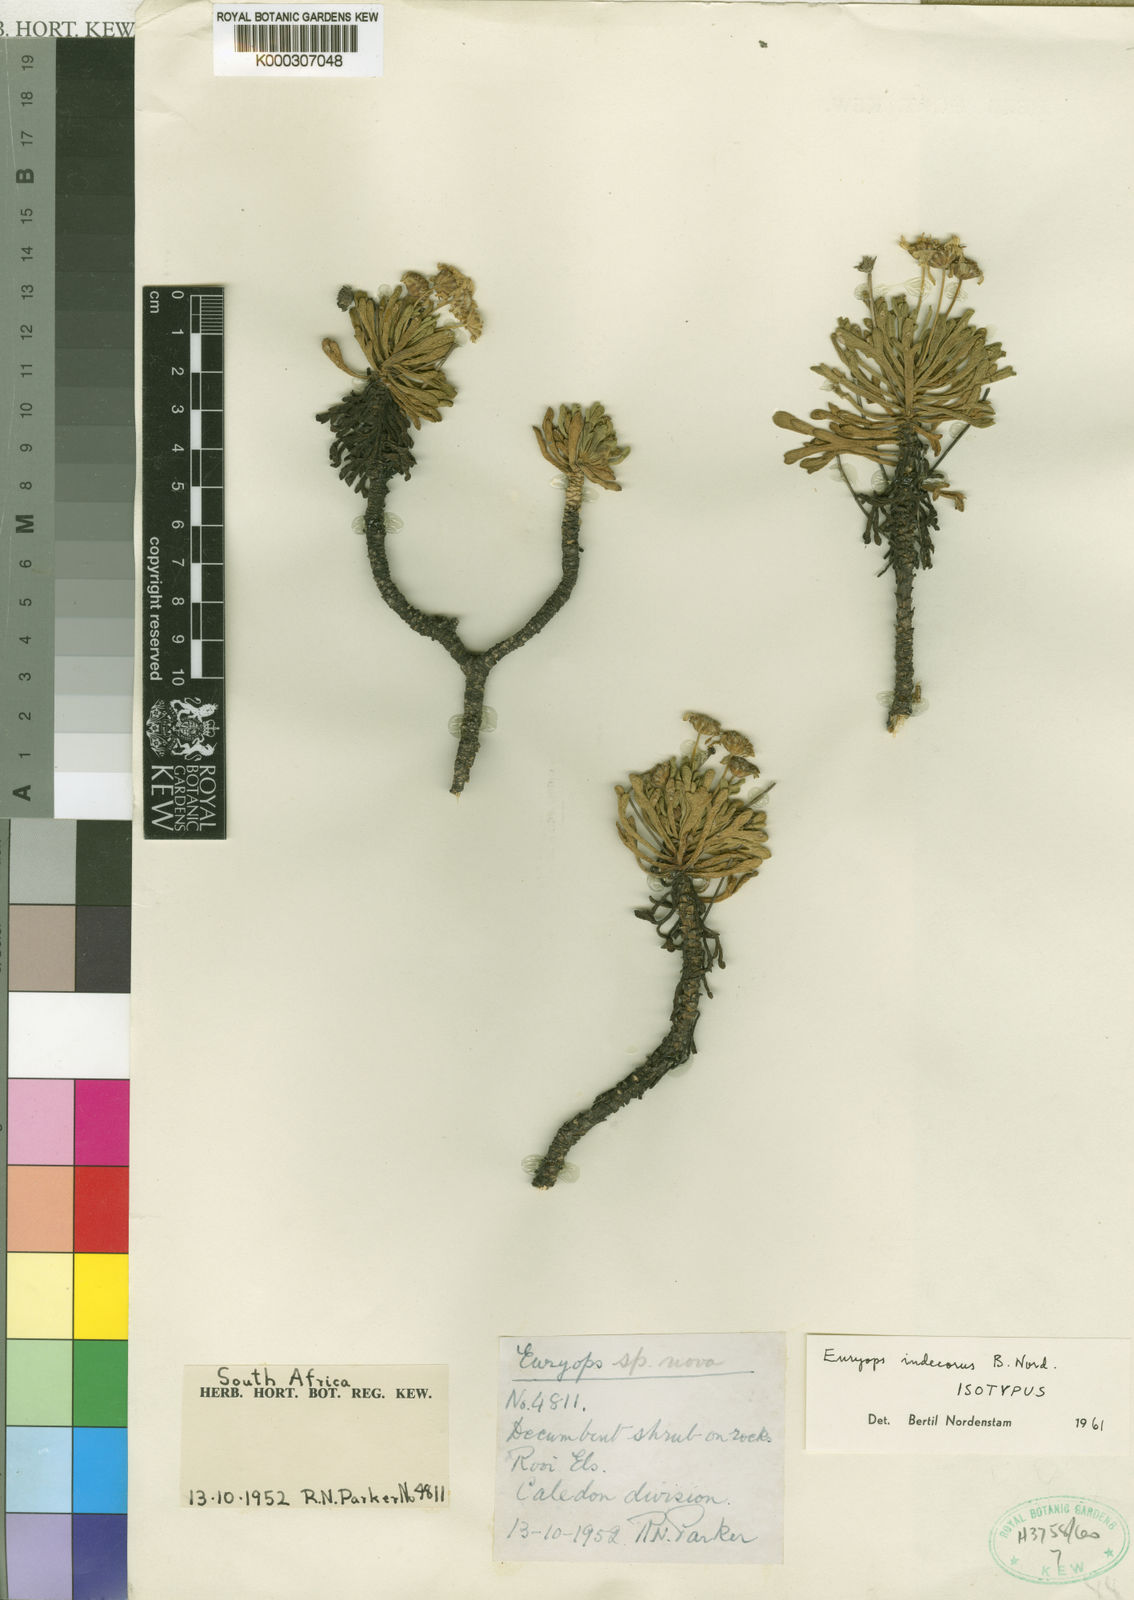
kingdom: Plantae
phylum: Tracheophyta
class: Magnoliopsida
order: Asterales
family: Asteraceae
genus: Euryops
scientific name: Euryops indecorus
